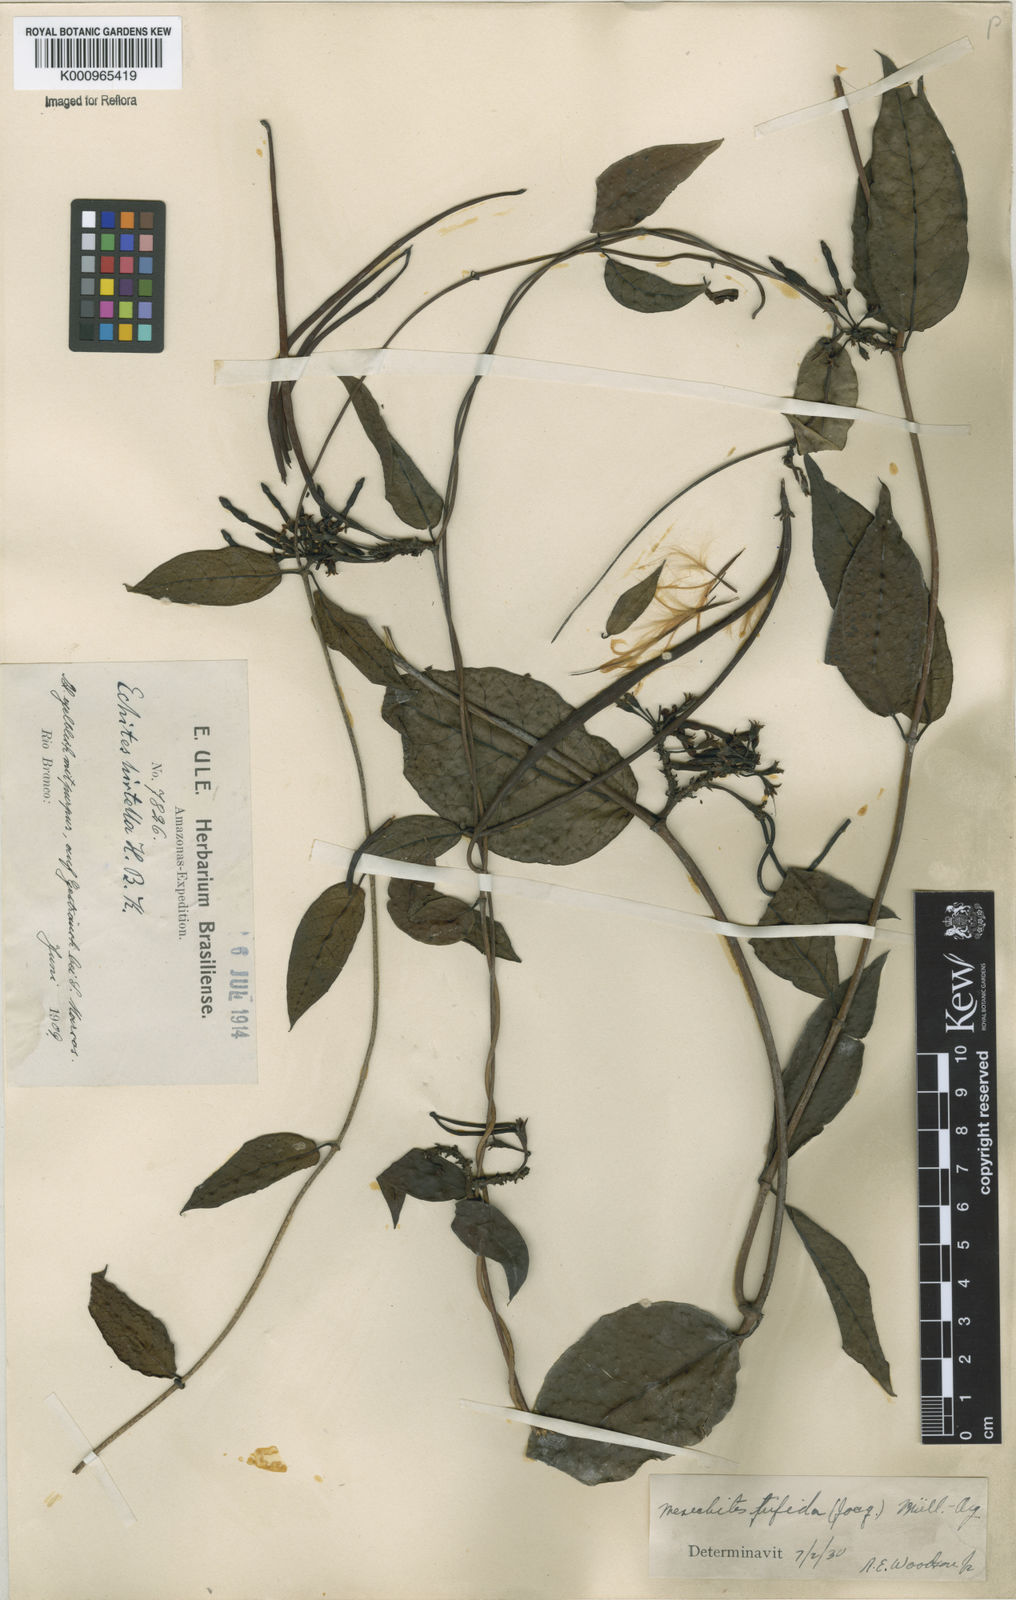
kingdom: Plantae
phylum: Tracheophyta
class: Magnoliopsida
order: Gentianales
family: Apocynaceae
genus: Mesechites
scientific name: Mesechites
